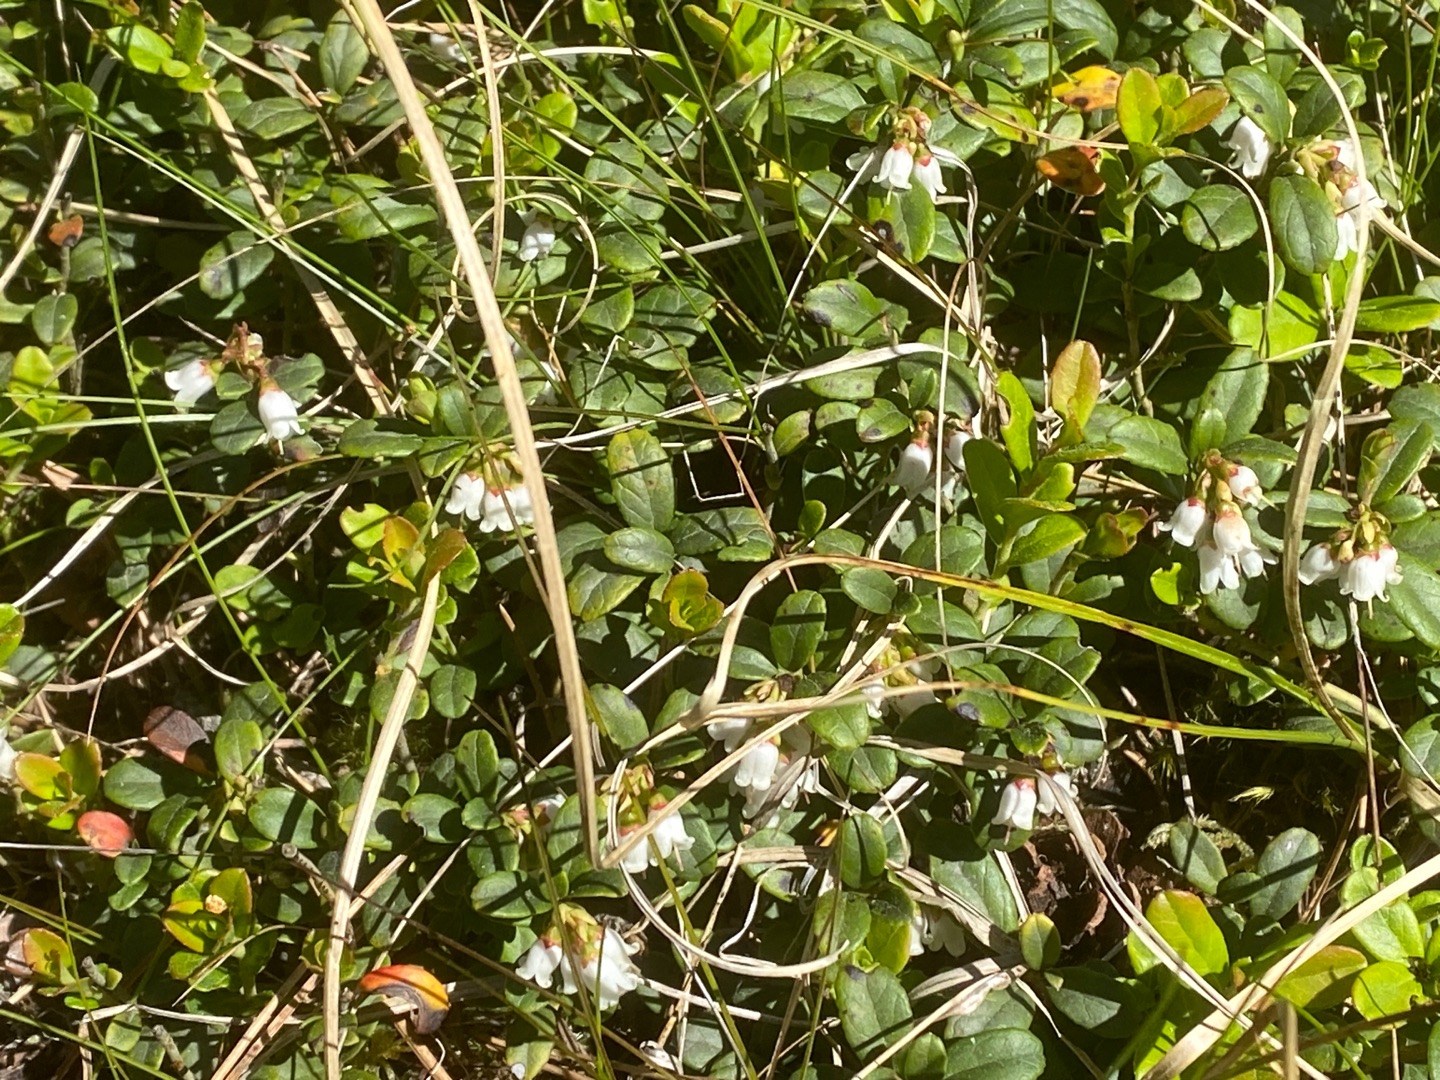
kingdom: Plantae
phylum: Tracheophyta
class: Magnoliopsida
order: Ericales
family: Ericaceae
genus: Vaccinium
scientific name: Vaccinium vitis-idaea
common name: Tyttebær
